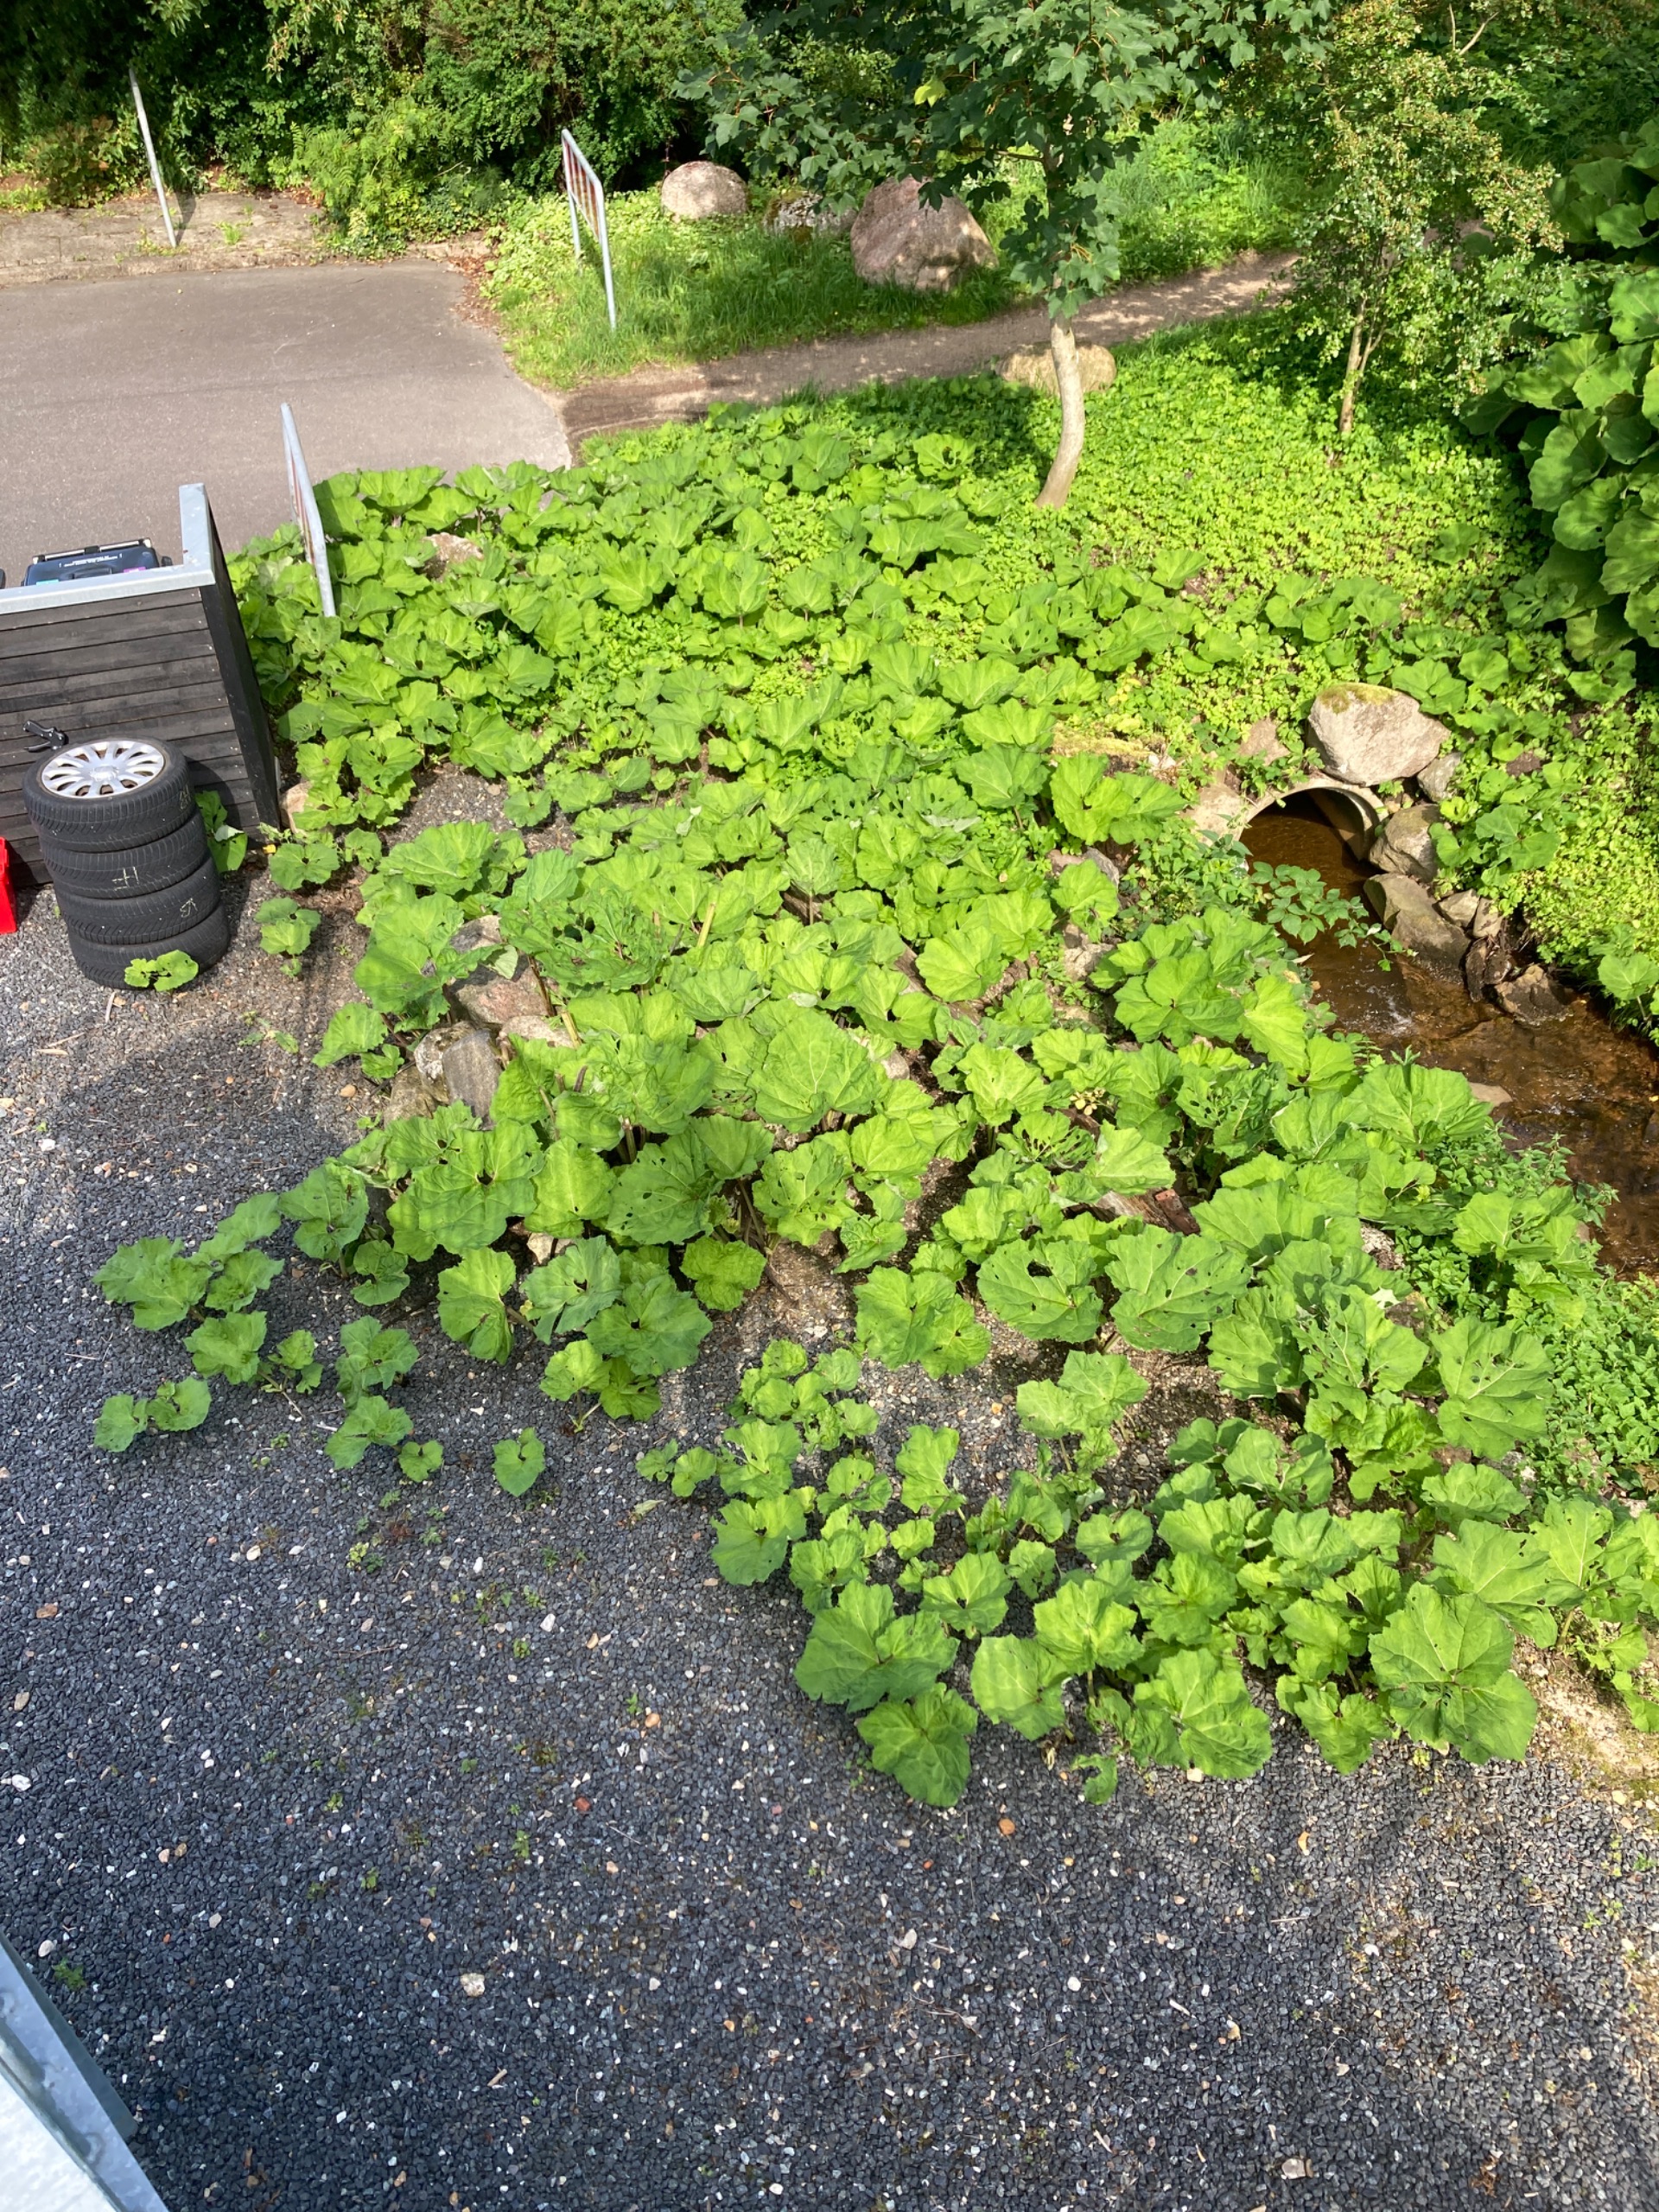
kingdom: Plantae
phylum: Tracheophyta
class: Magnoliopsida
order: Asterales
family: Asteraceae
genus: Petasites
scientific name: Petasites hybridus
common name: Rød hestehov
